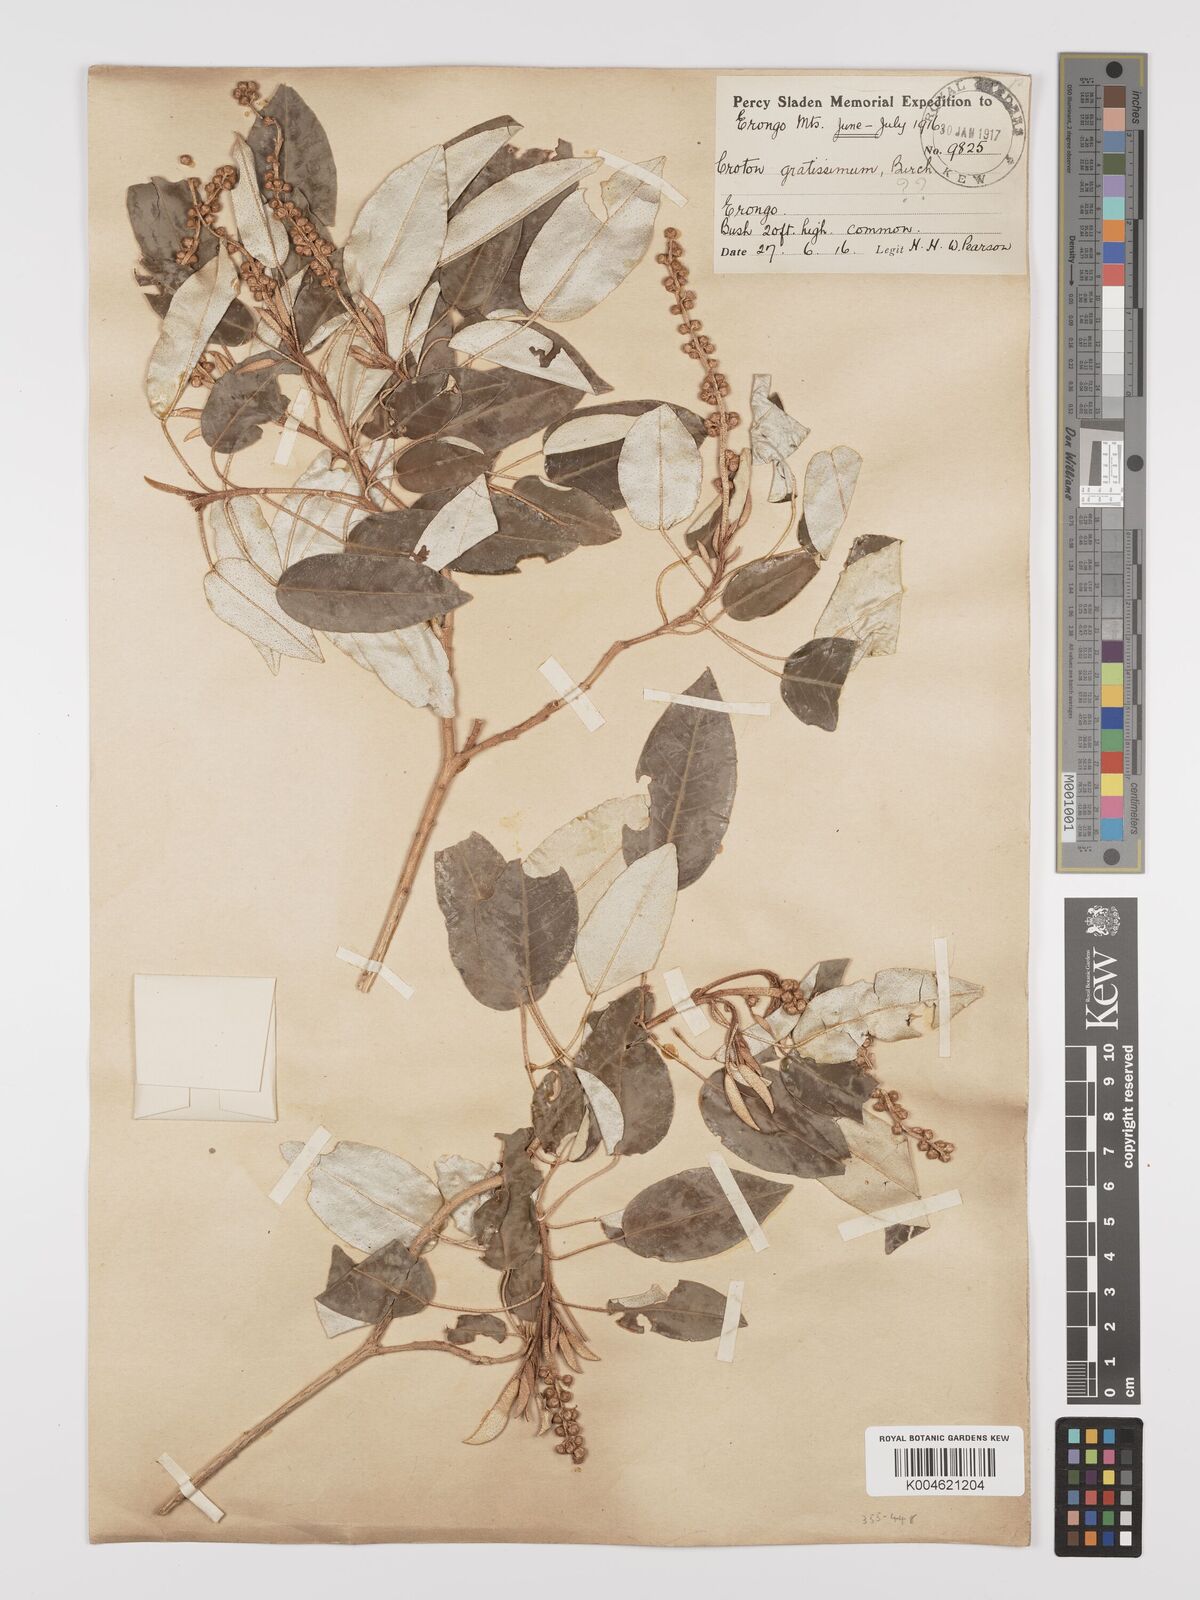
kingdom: Plantae
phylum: Tracheophyta
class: Magnoliopsida
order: Malpighiales
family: Euphorbiaceae
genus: Croton
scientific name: Croton gratissimus
